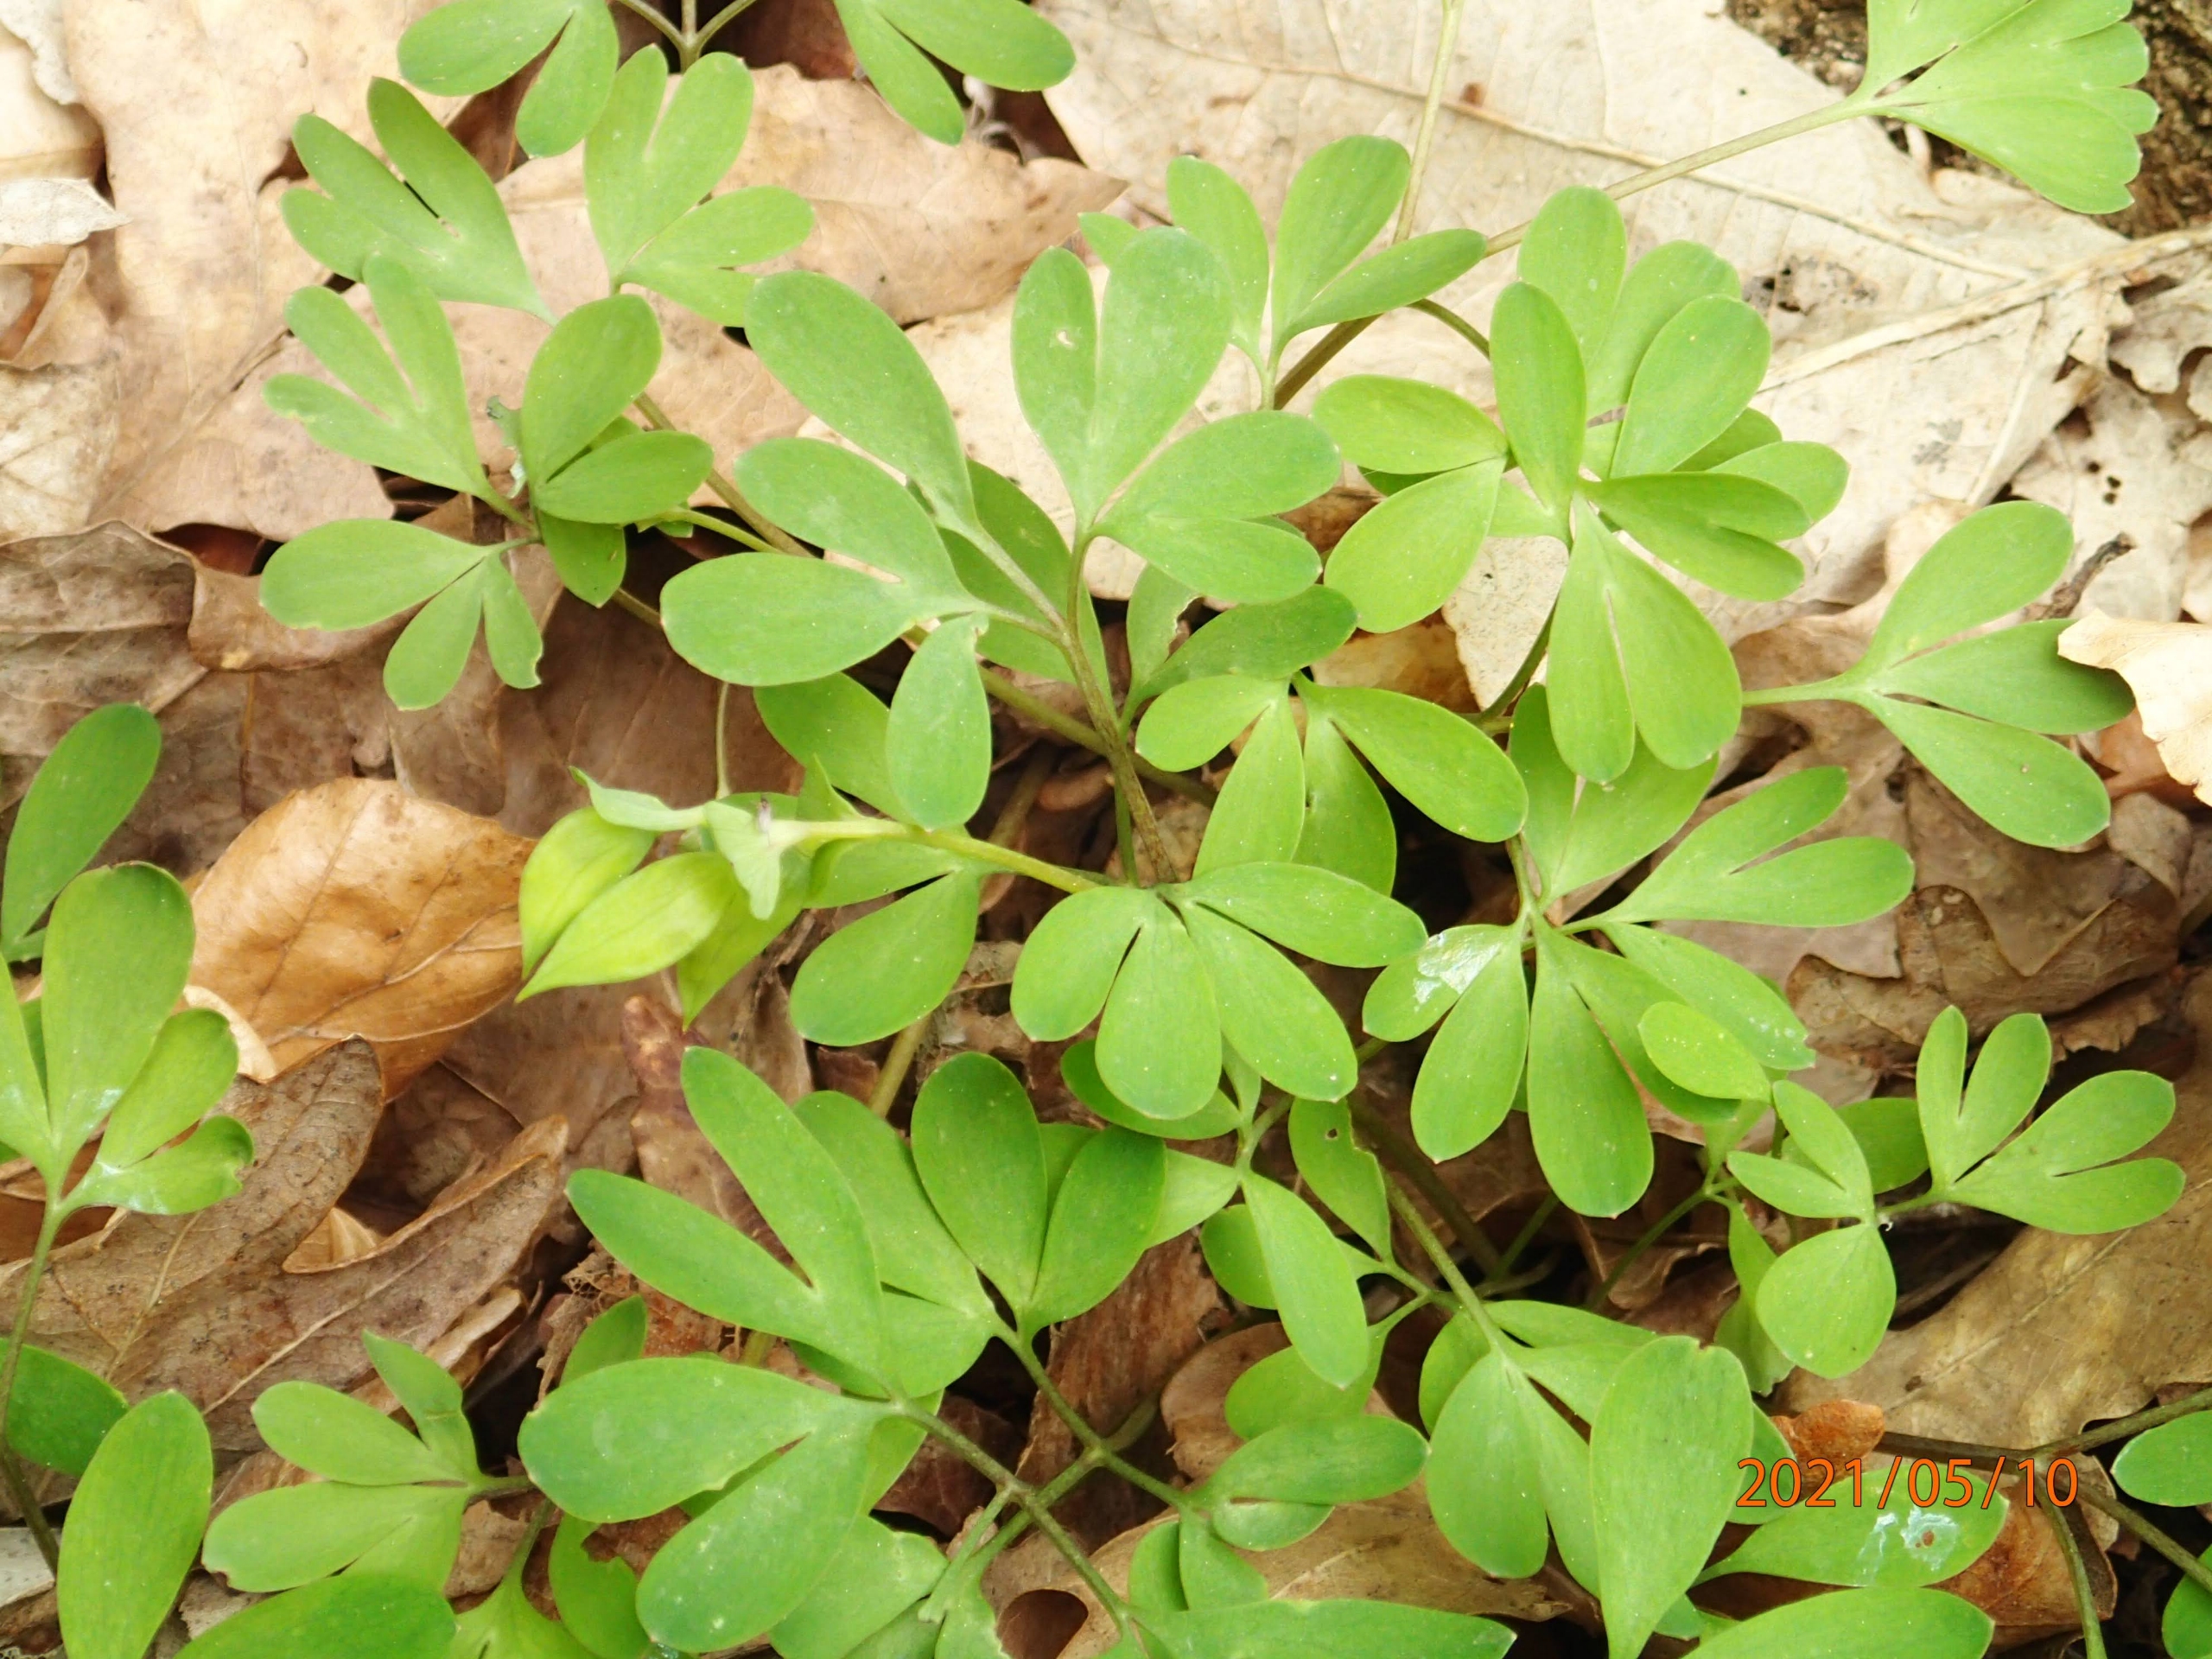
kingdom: Plantae
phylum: Tracheophyta
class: Magnoliopsida
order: Ranunculales
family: Papaveraceae
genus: Corydalis
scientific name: Corydalis intermedia
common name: Liden lærkespore
